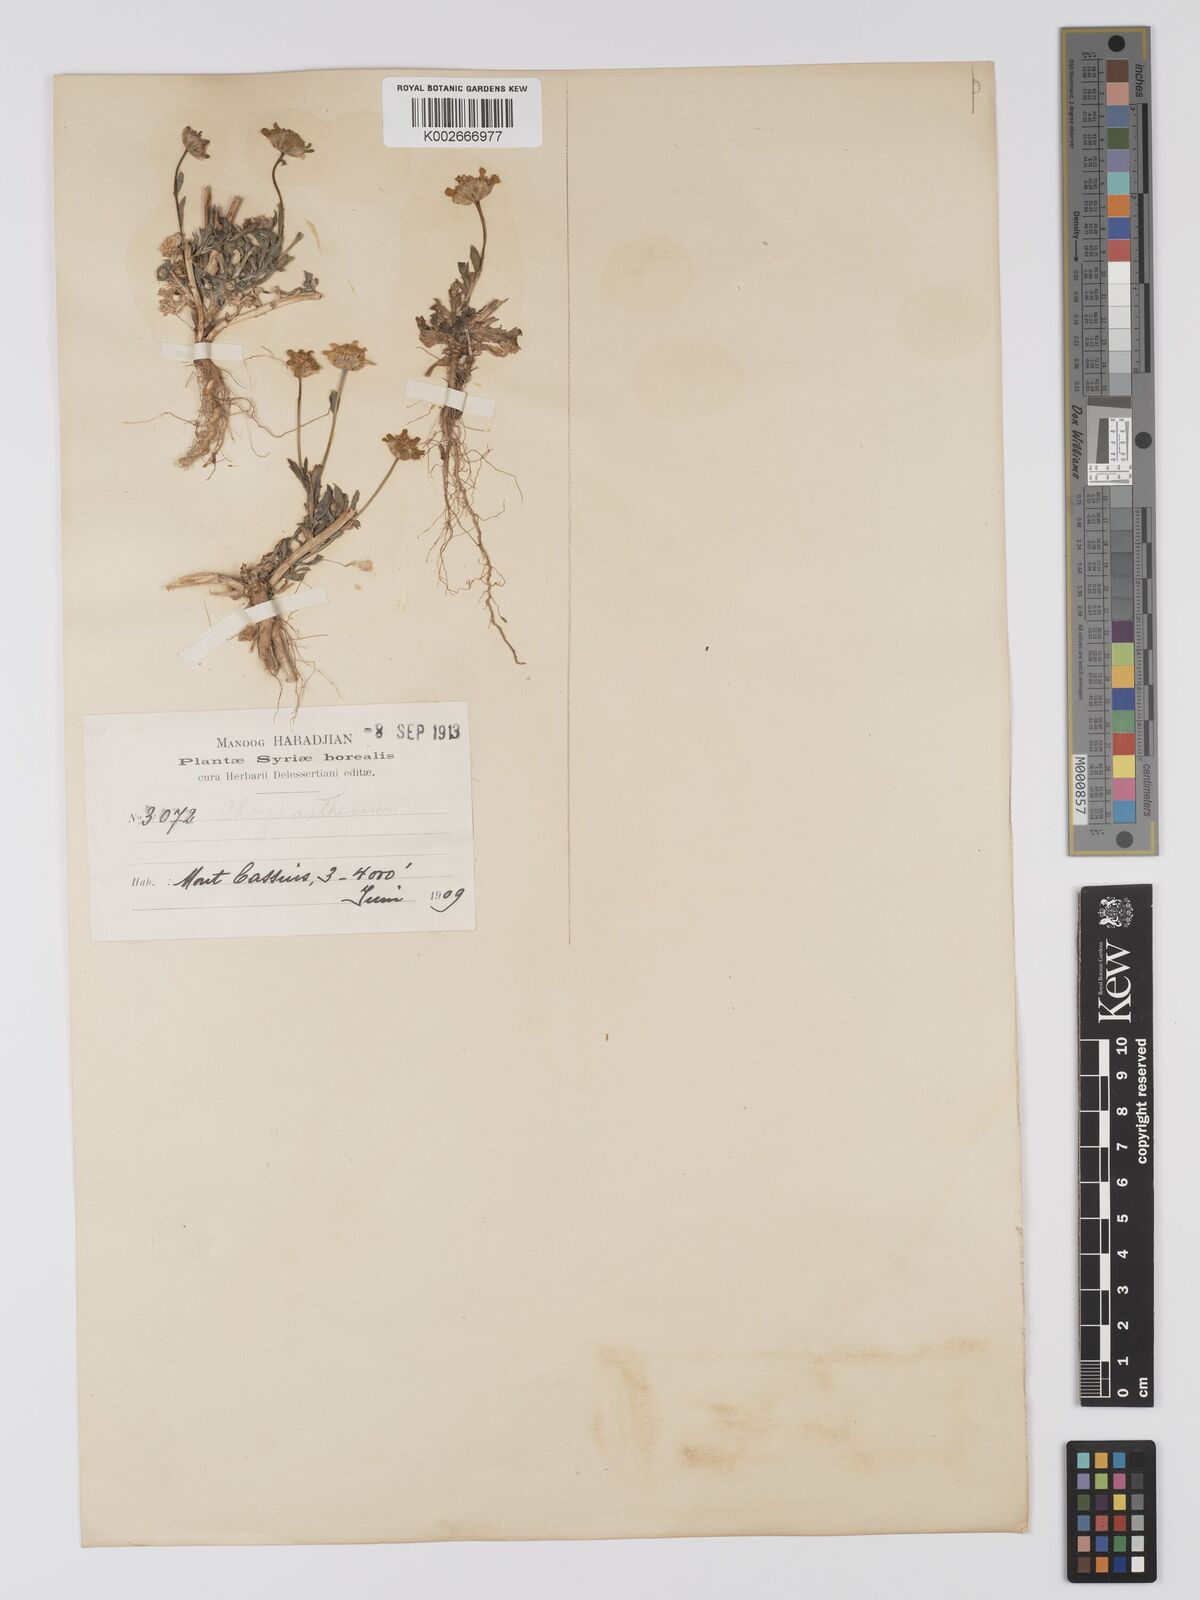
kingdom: Plantae
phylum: Tracheophyta
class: Magnoliopsida
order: Asterales
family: Asteraceae
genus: Glebionis
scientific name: Glebionis segetum
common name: Corndaisy
